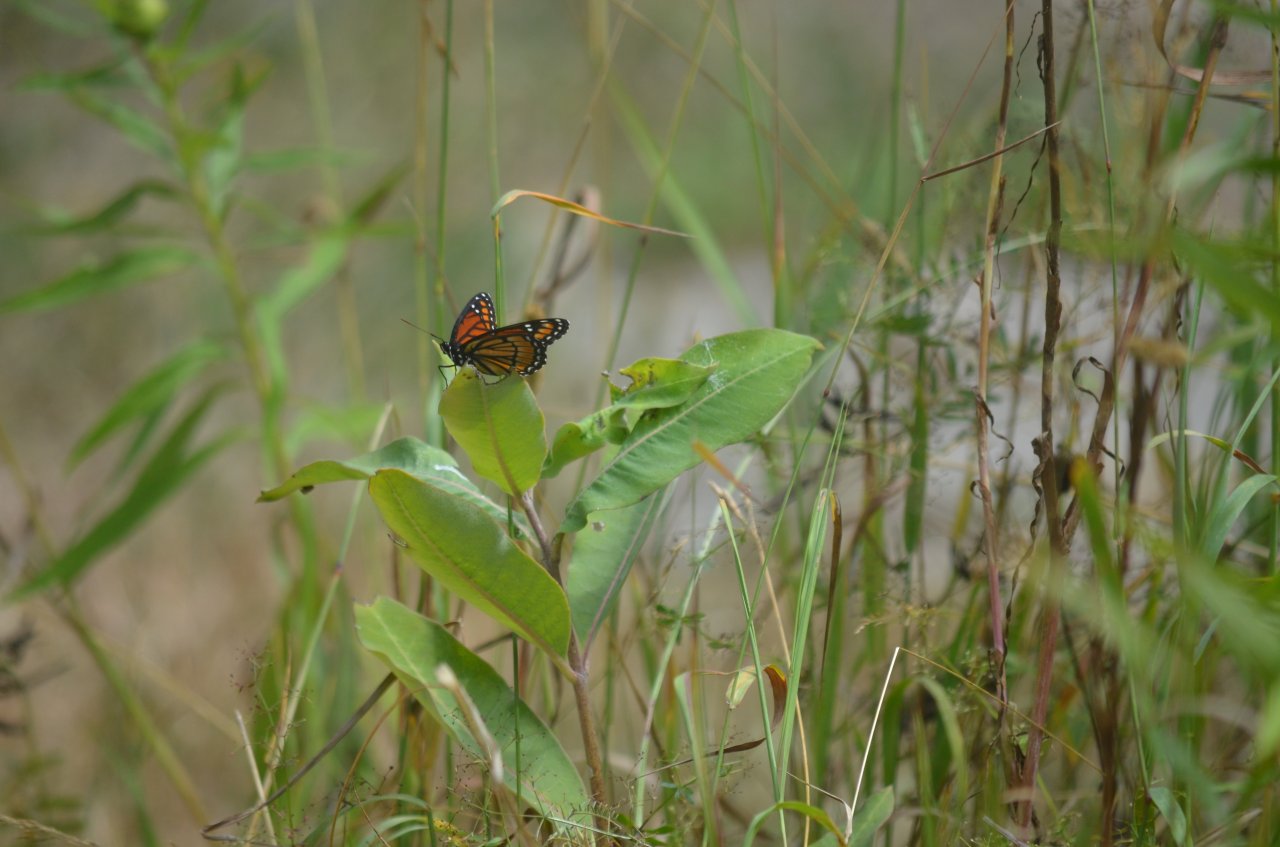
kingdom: Animalia
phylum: Arthropoda
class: Insecta
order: Lepidoptera
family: Nymphalidae
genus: Limenitis
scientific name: Limenitis archippus
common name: Viceroy
